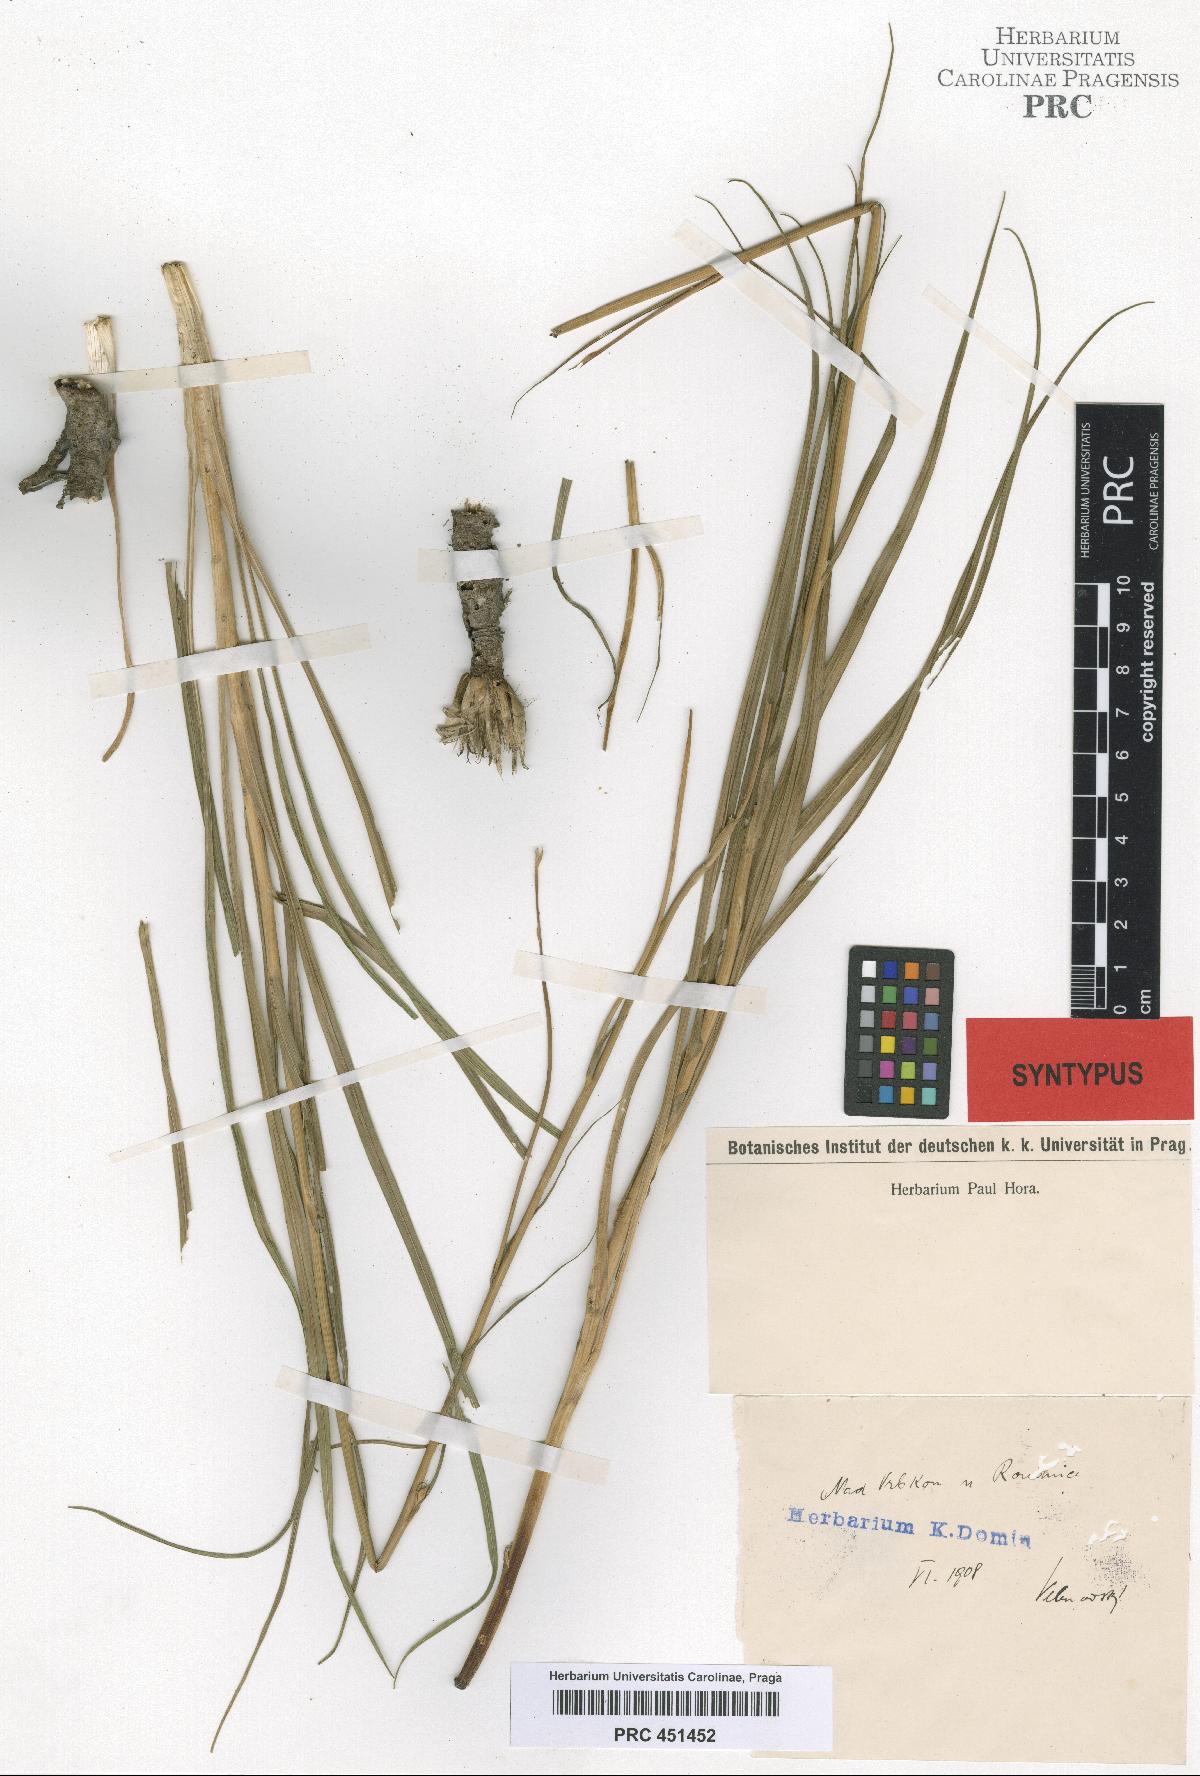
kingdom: Plantae
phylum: Tracheophyta
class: Magnoliopsida
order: Asterales
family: Asteraceae
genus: Pseudopodospermum
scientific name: Pseudopodospermum hispanicum
